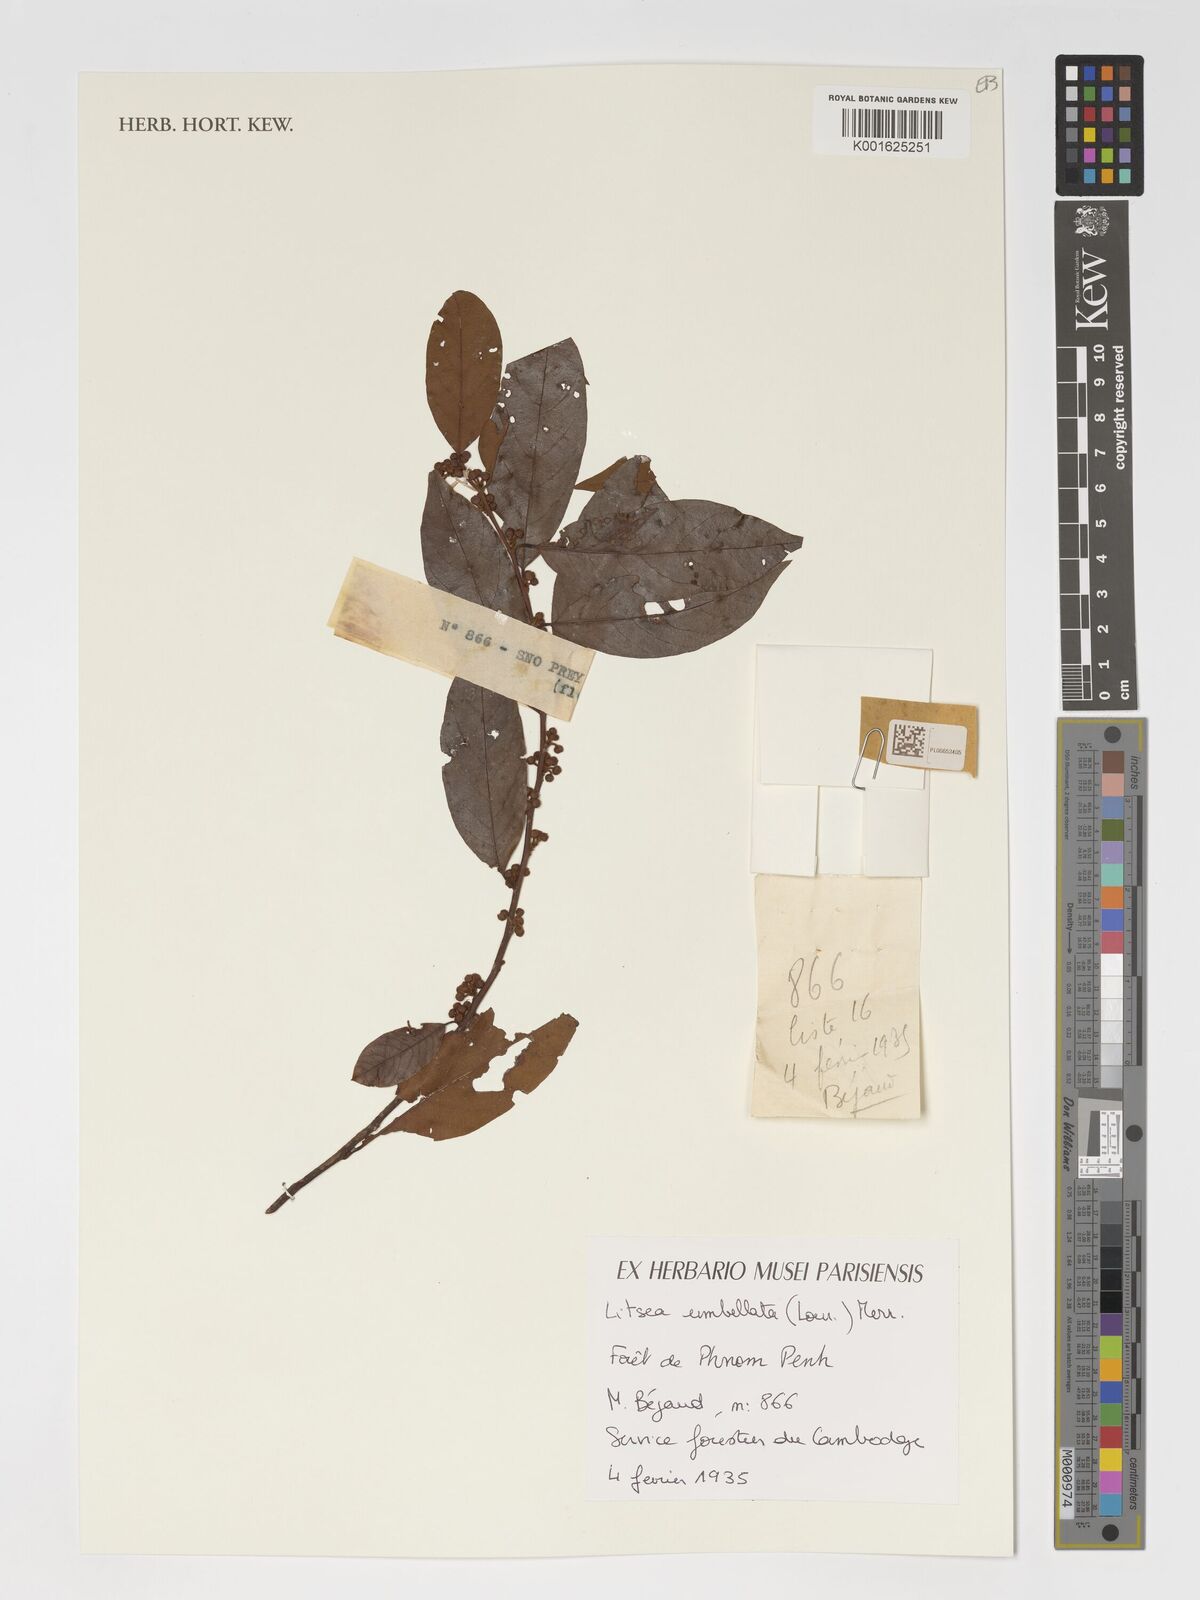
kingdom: Plantae
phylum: Tracheophyta
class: Magnoliopsida
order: Laurales
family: Lauraceae
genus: Litsea
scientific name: Litsea umbellata
